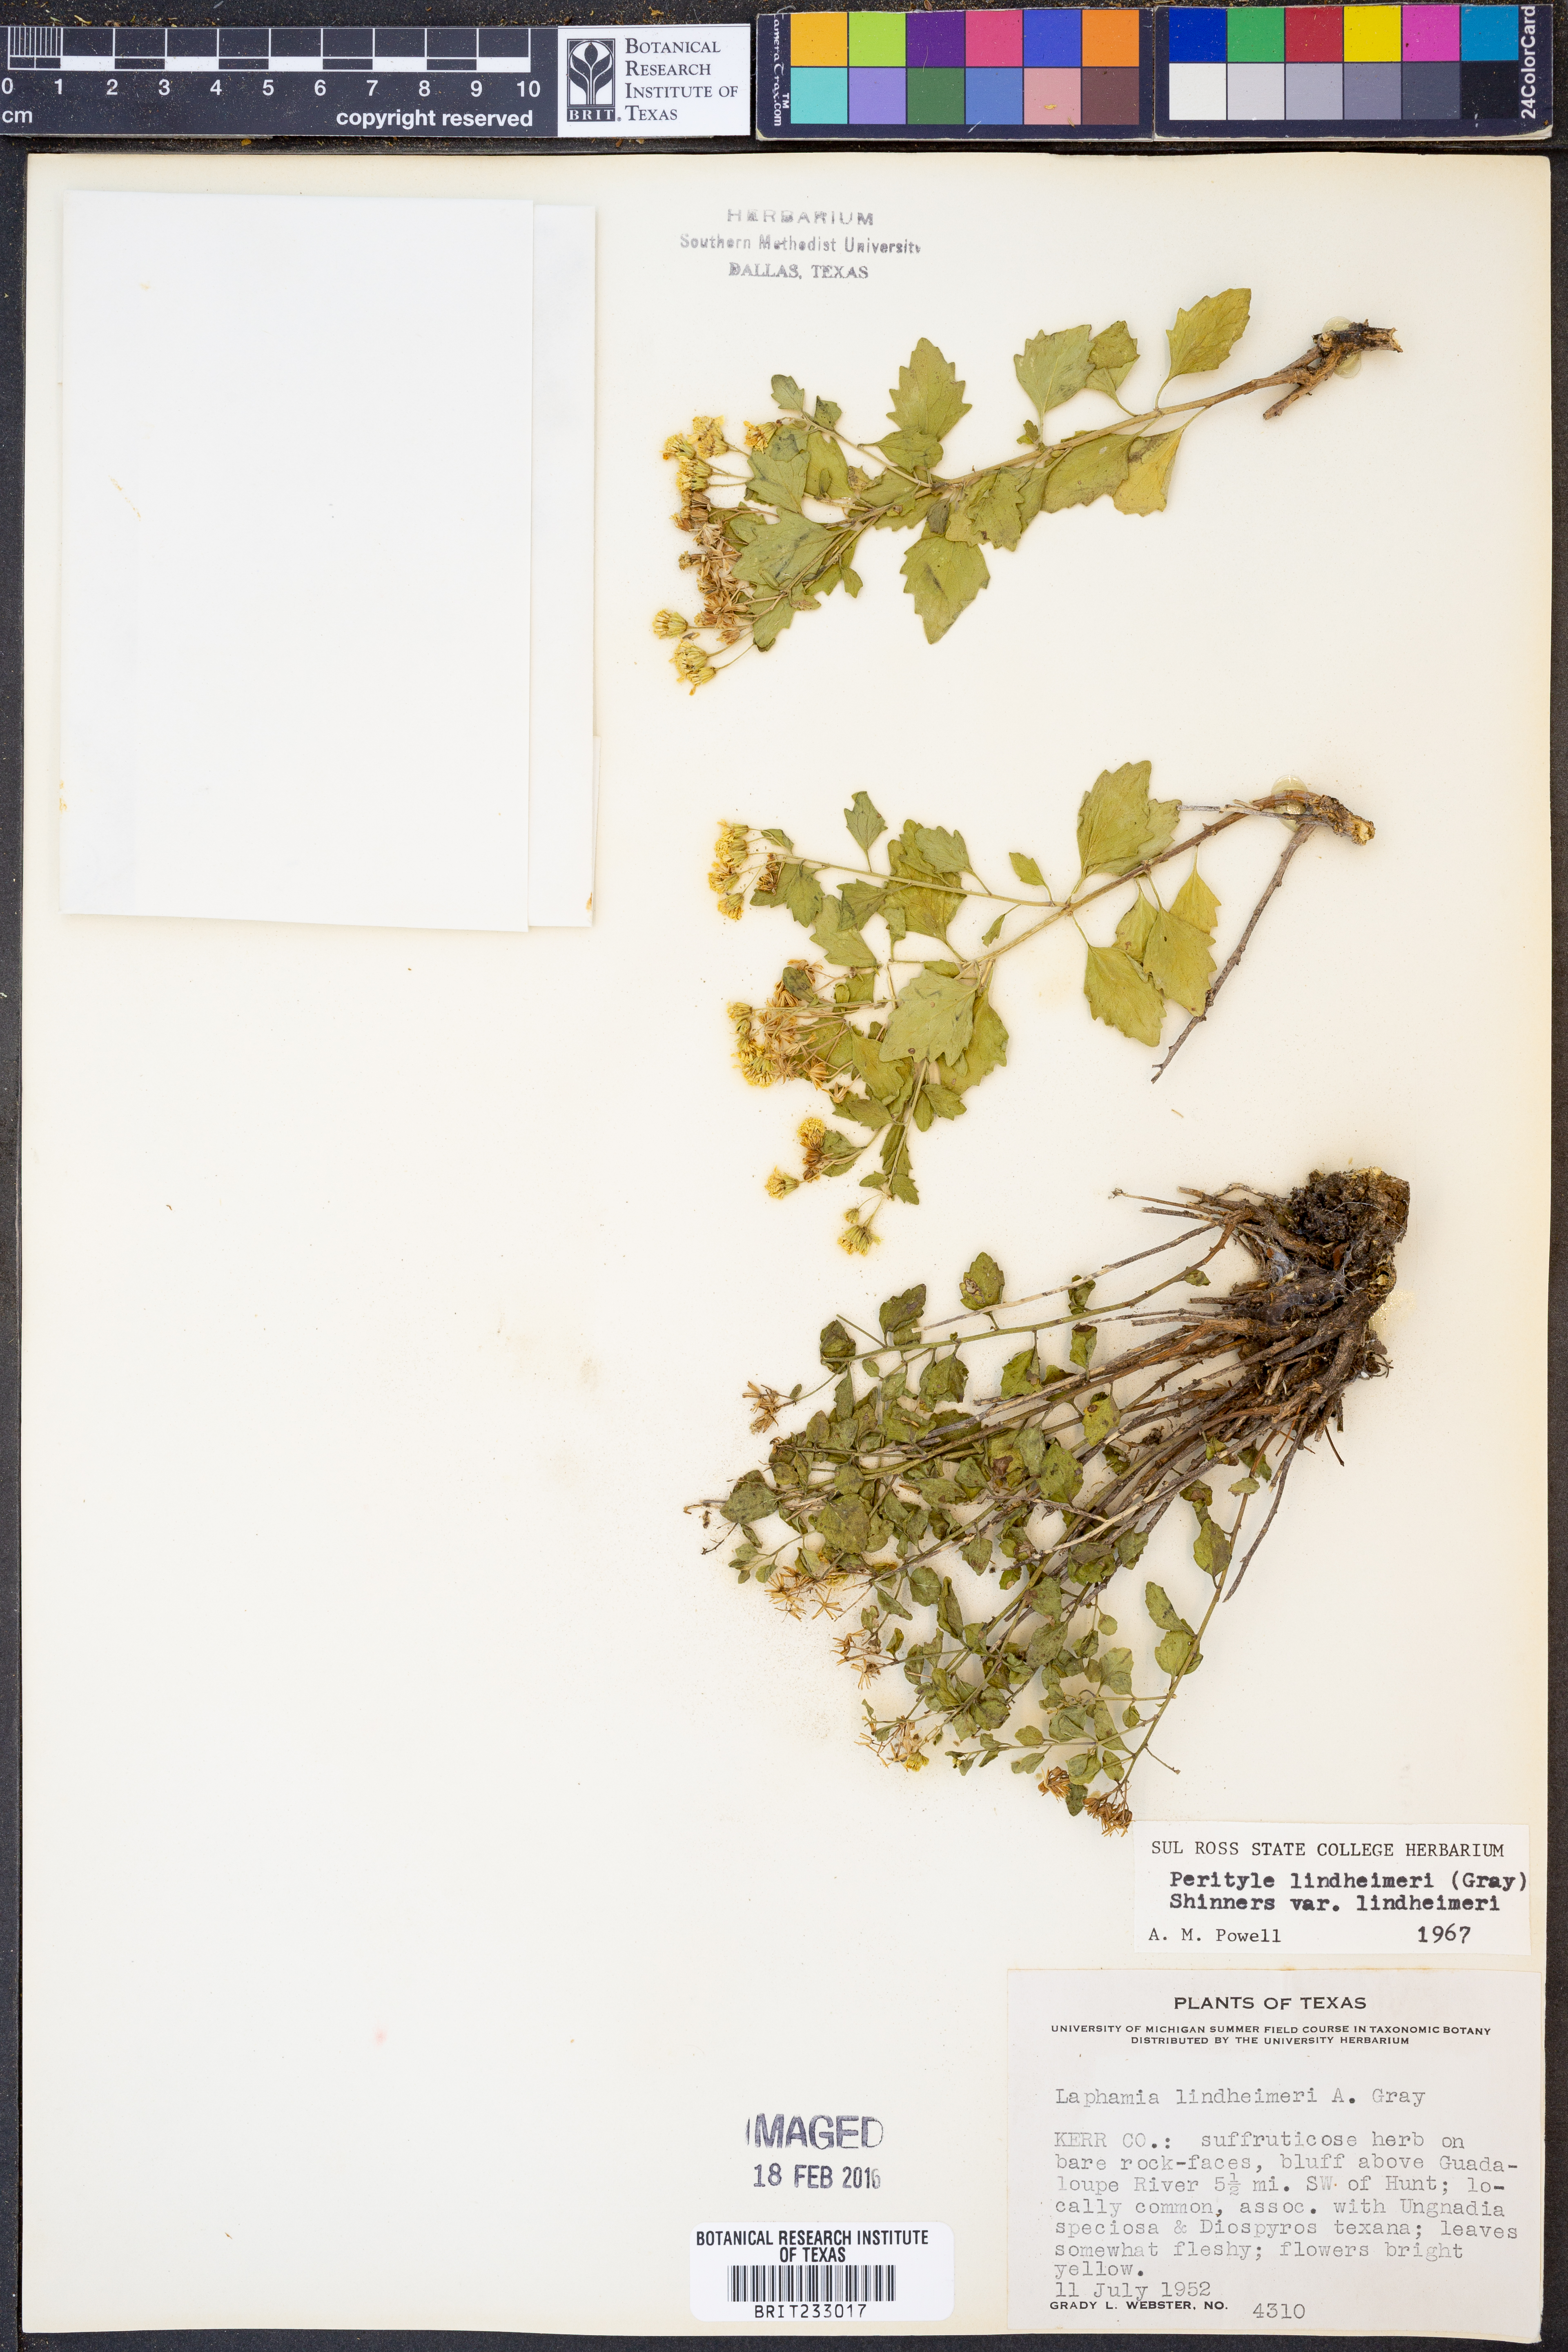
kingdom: Plantae
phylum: Tracheophyta
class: Magnoliopsida
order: Asterales
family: Asteraceae
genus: Laphamia
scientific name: Laphamia lindheimeri
